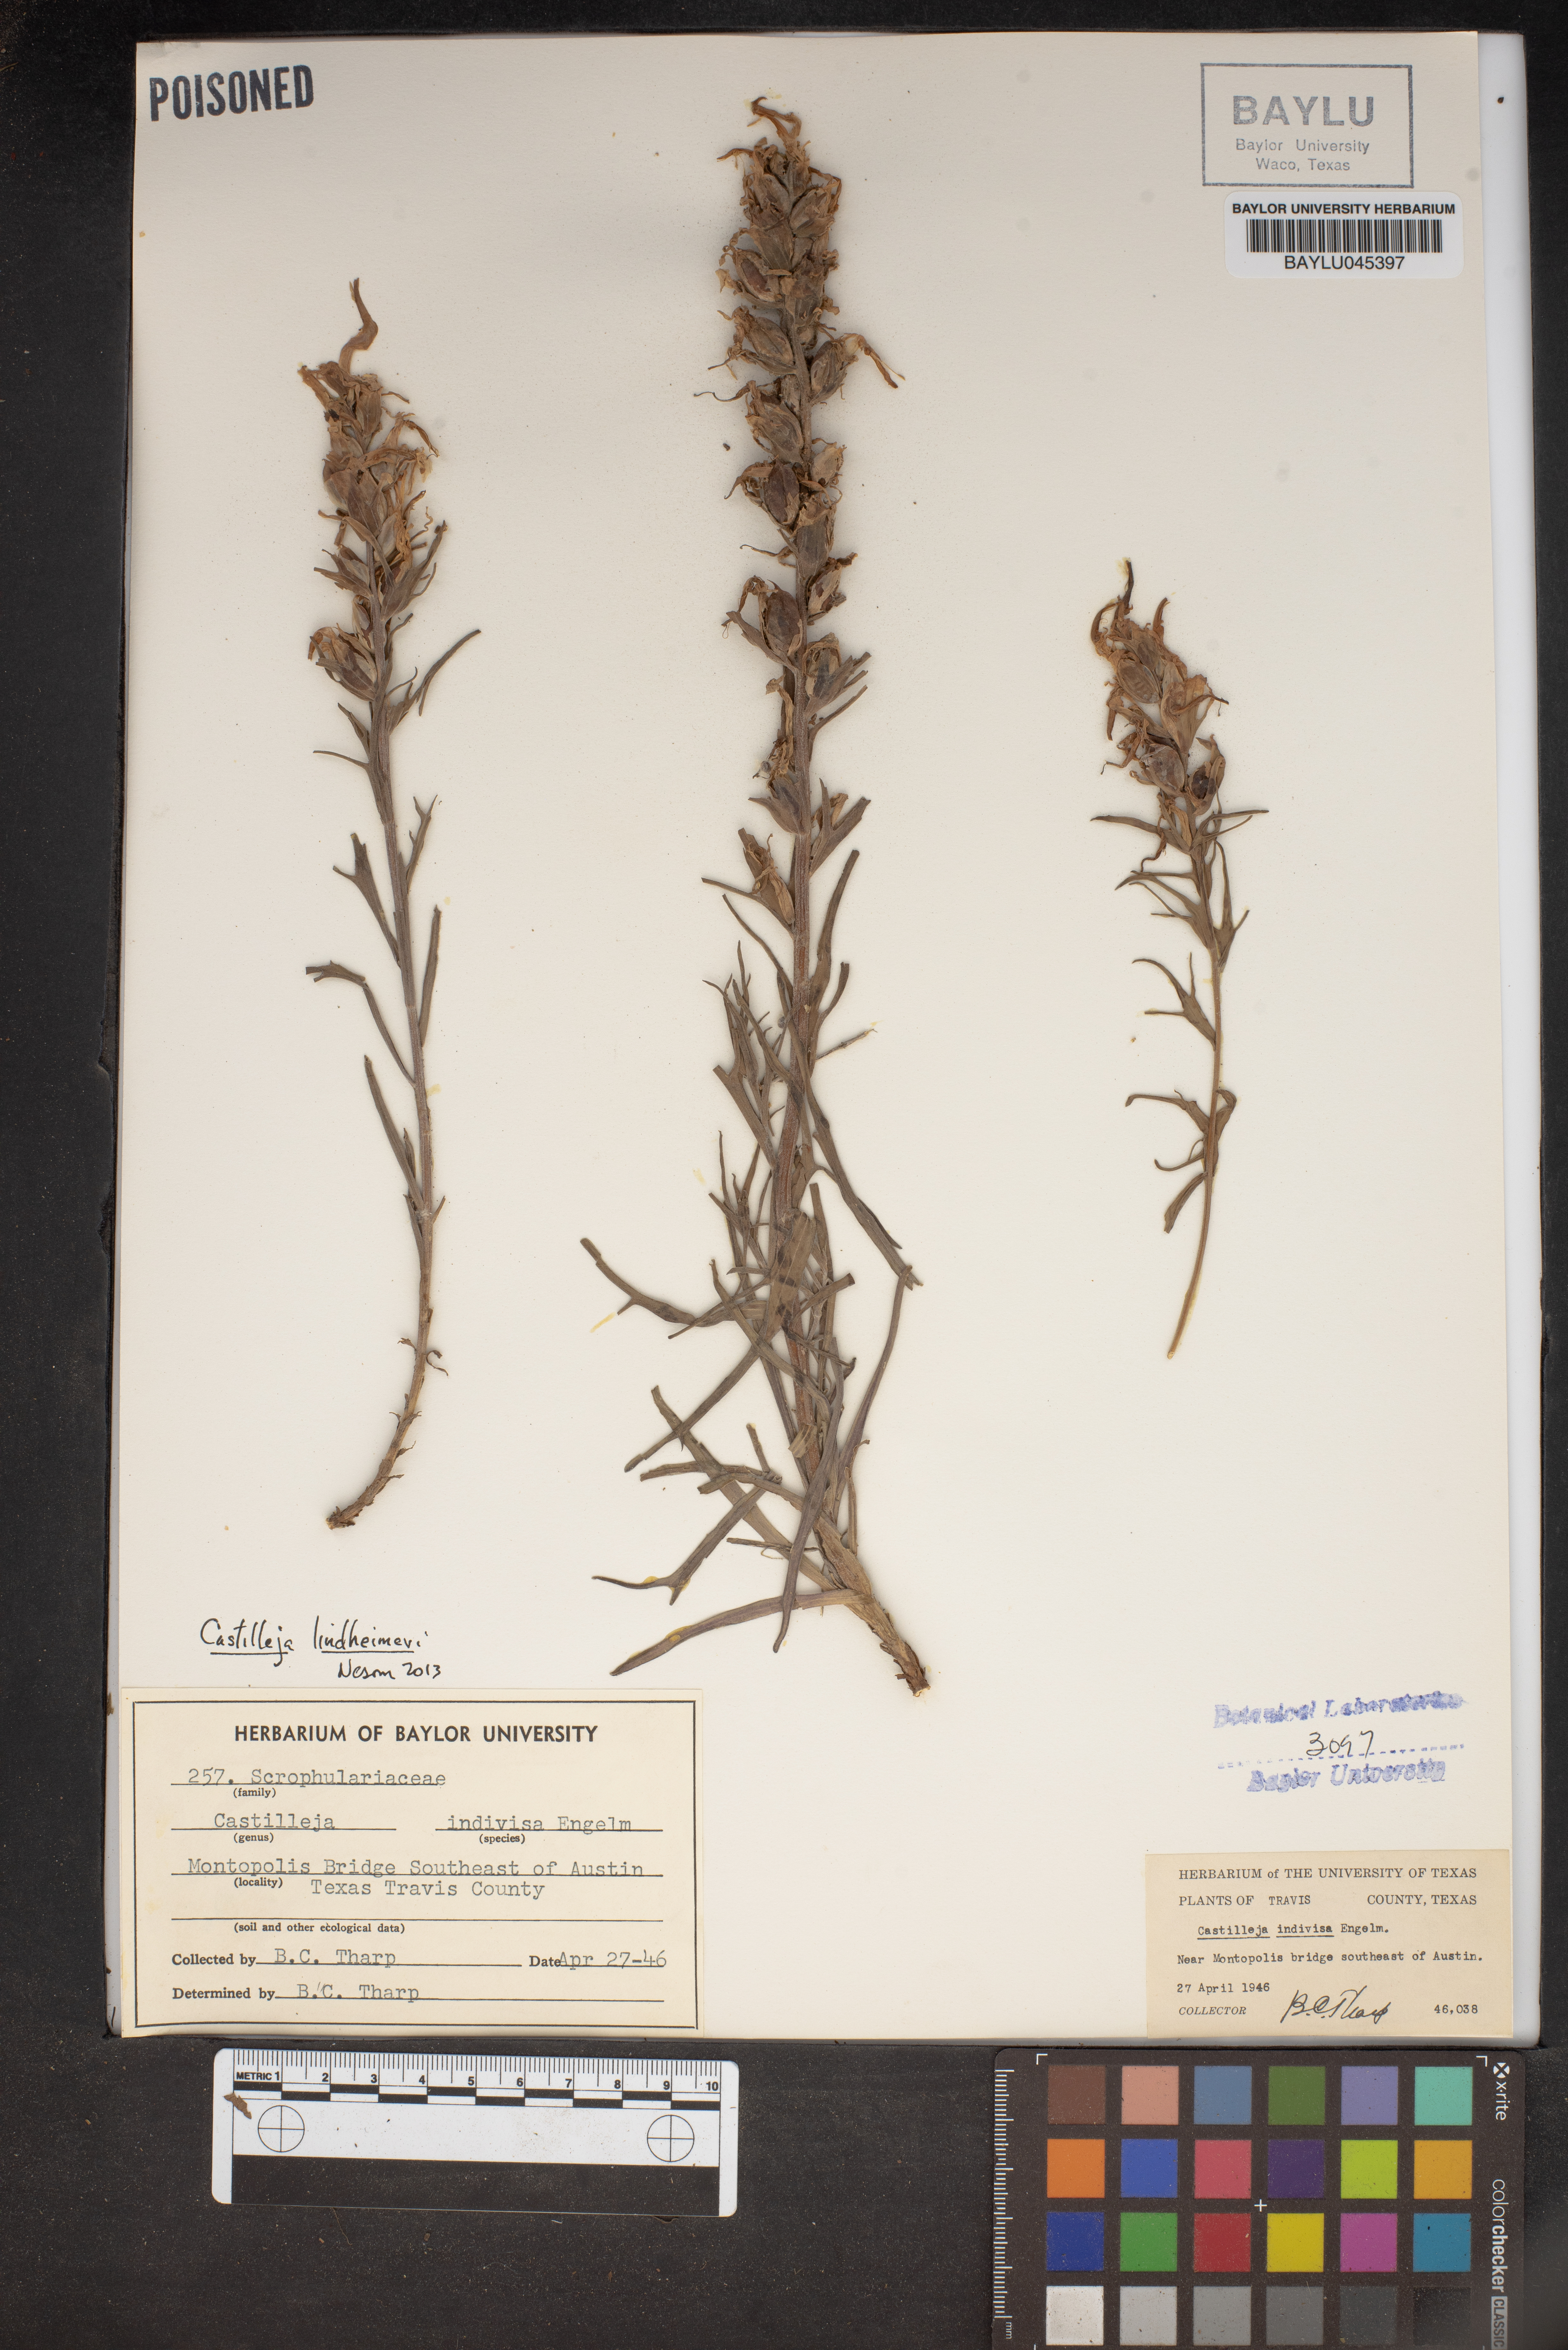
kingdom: Plantae
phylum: Tracheophyta
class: Magnoliopsida
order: Lamiales
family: Orobanchaceae
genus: Castilleja
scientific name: Castilleja indivisa
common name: Texas paintbrush
